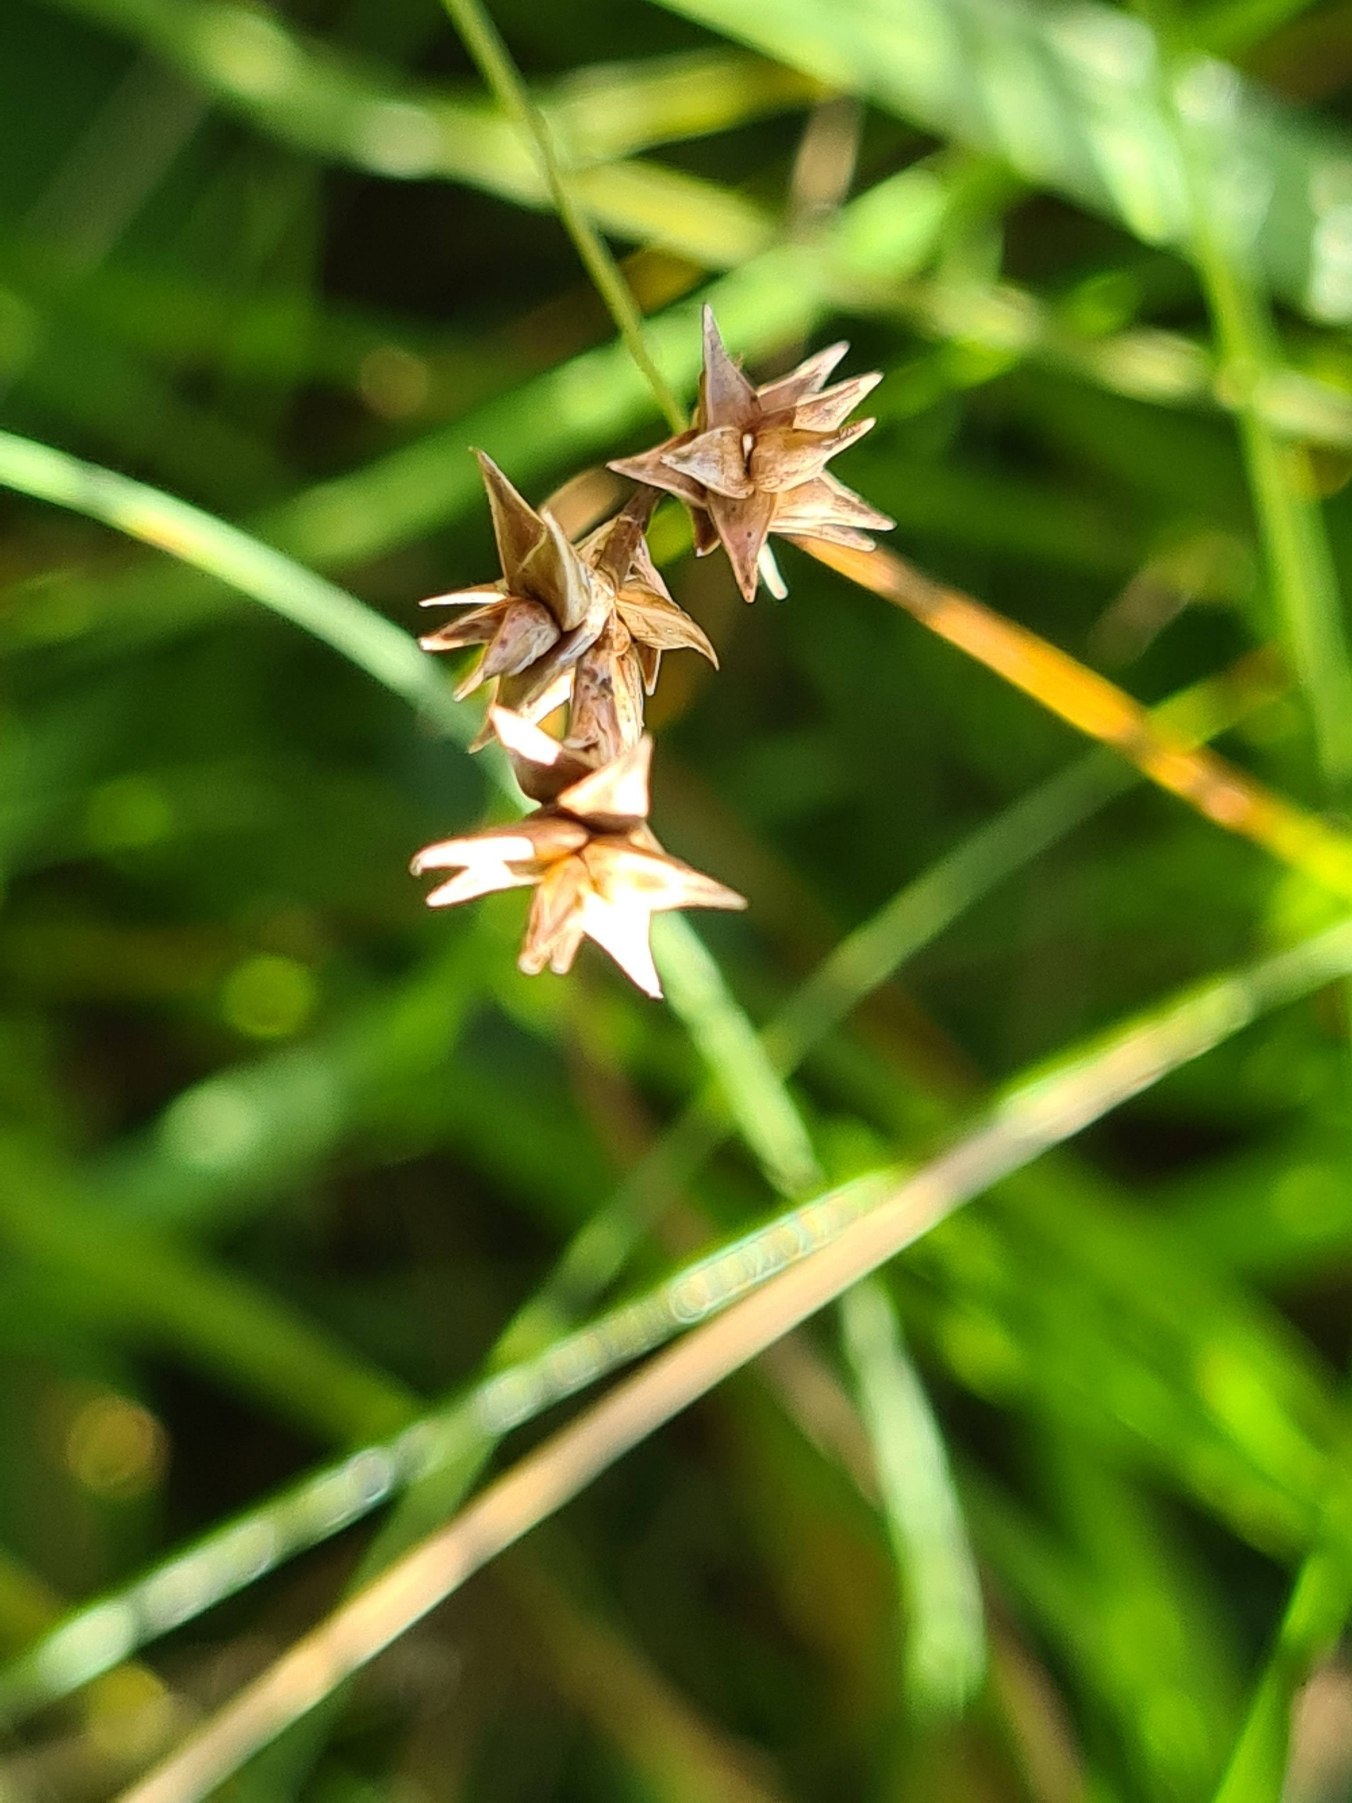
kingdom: Plantae
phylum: Tracheophyta
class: Liliopsida
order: Poales
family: Cyperaceae
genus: Carex
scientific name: Carex echinata
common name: Stjerne-star
